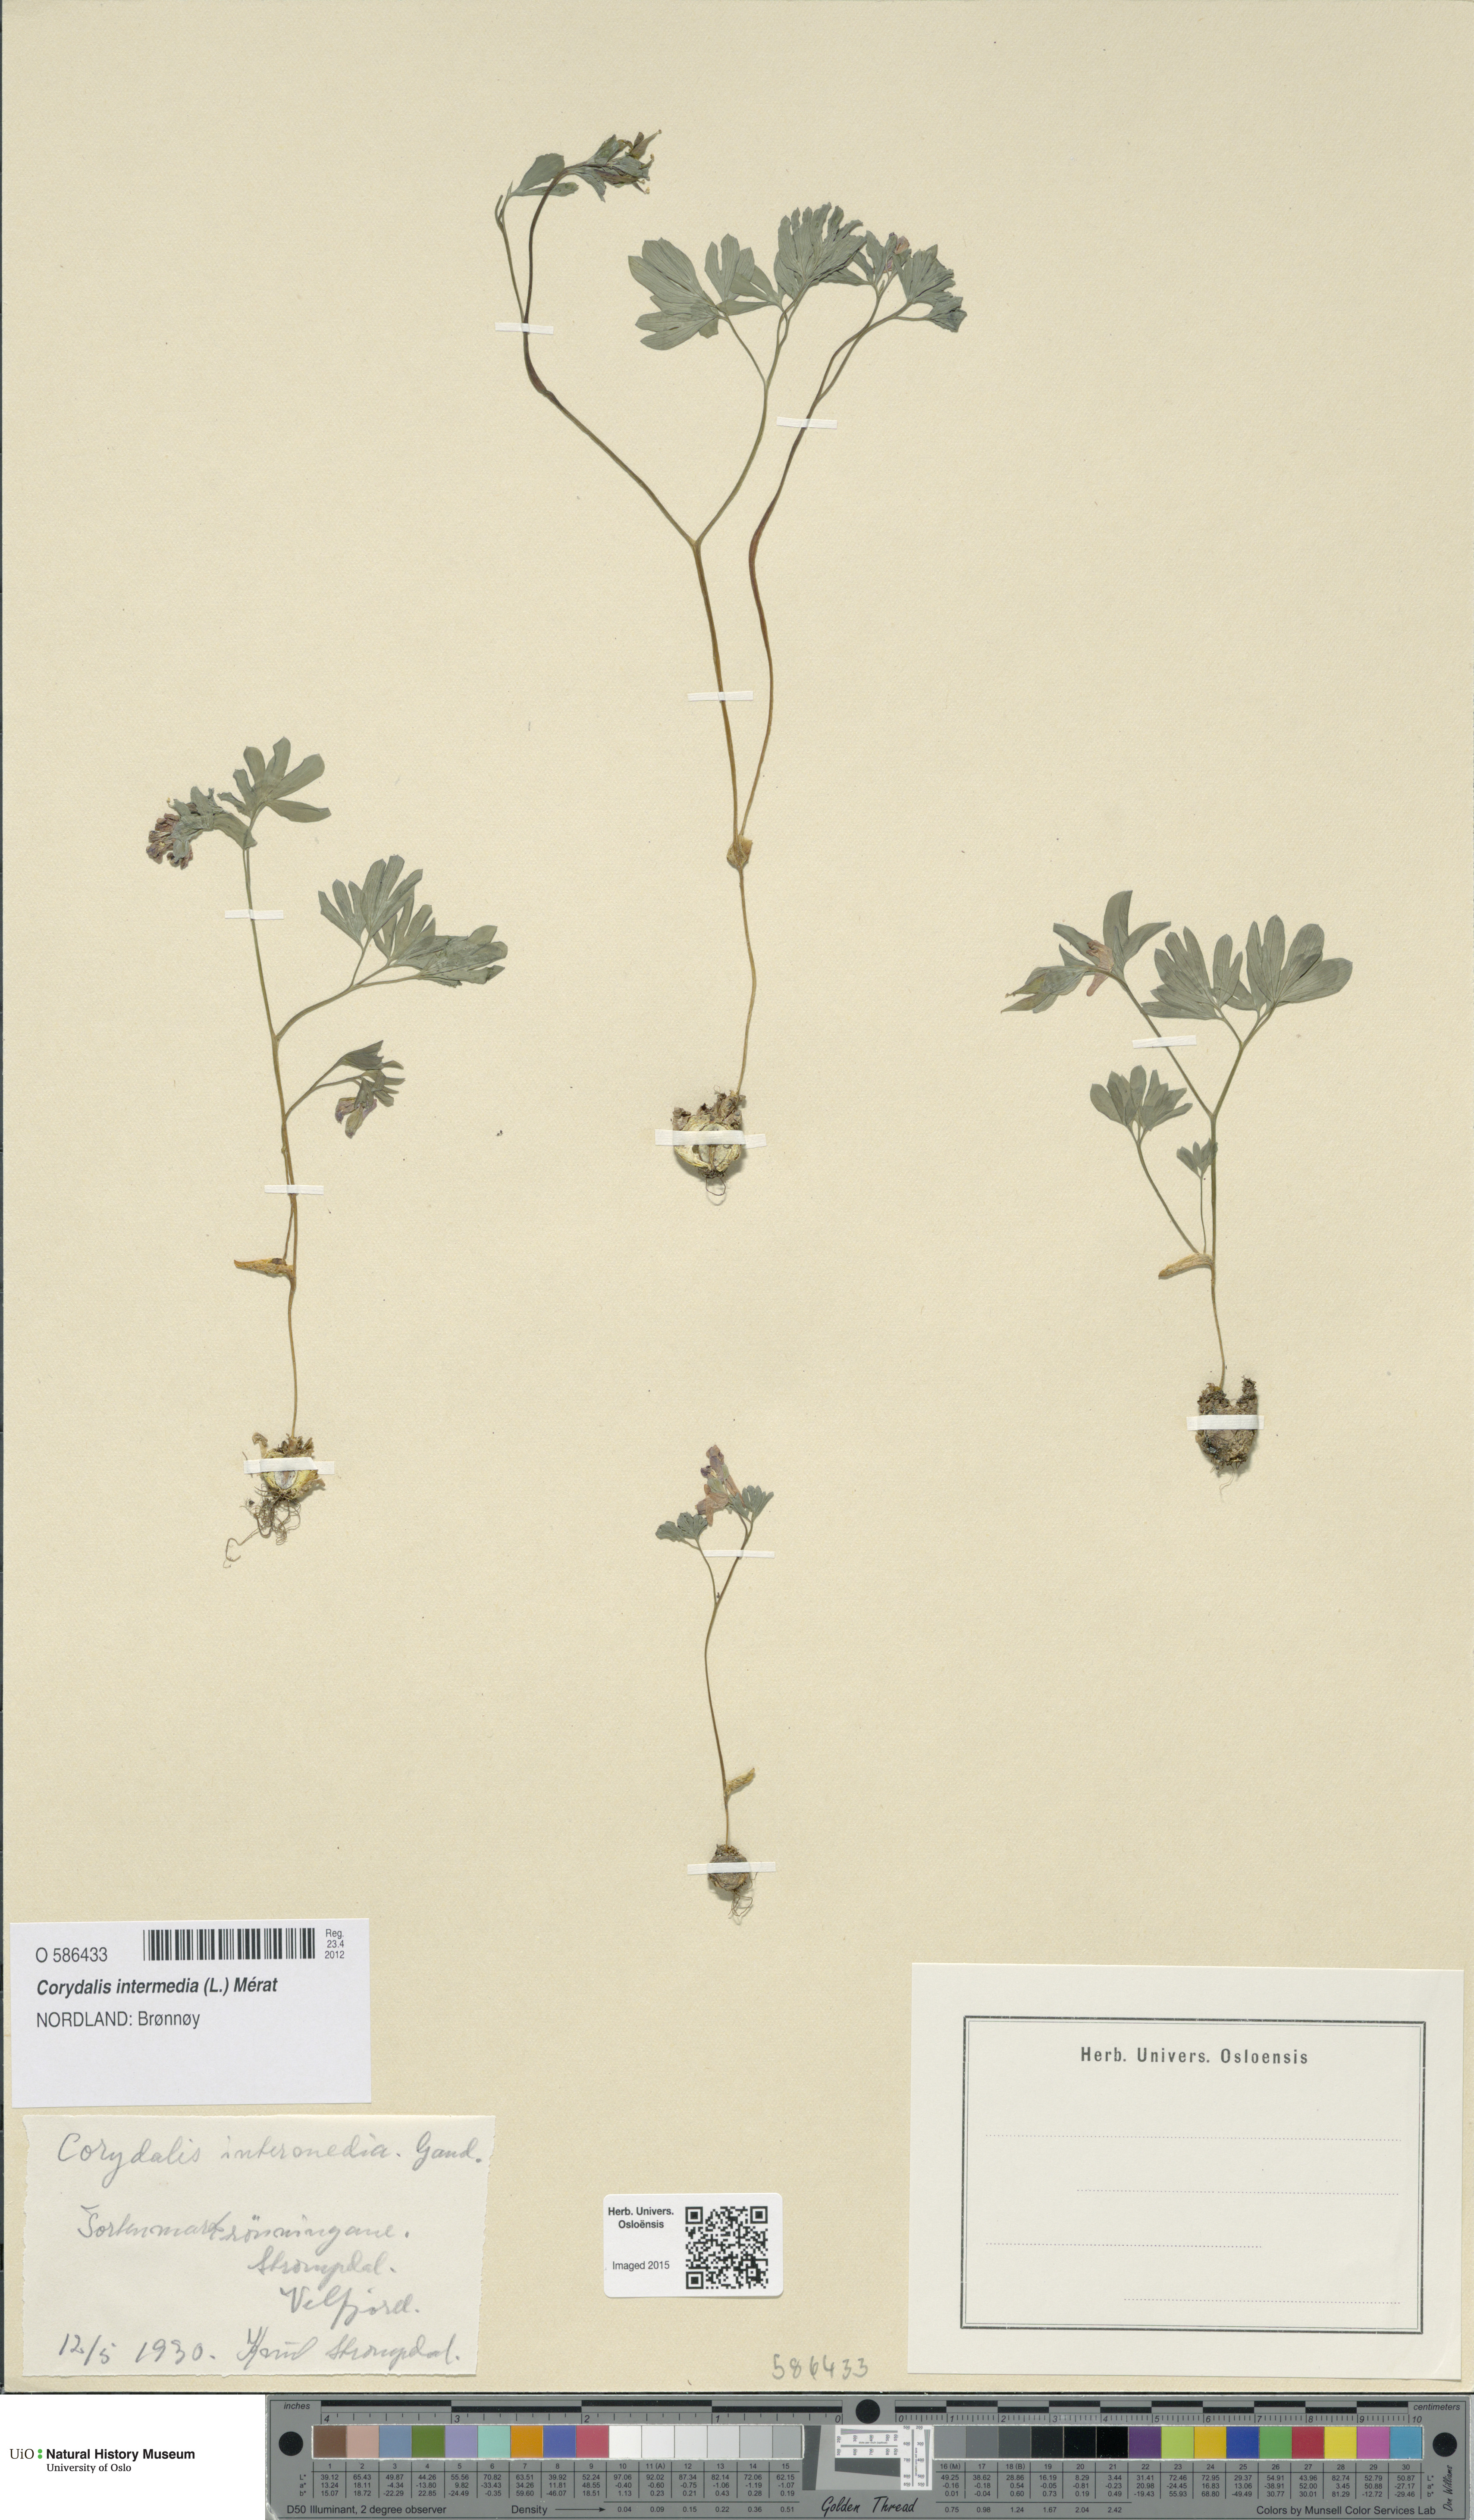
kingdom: Plantae
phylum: Tracheophyta
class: Magnoliopsida
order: Ranunculales
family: Papaveraceae
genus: Corydalis
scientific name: Corydalis intermedia
